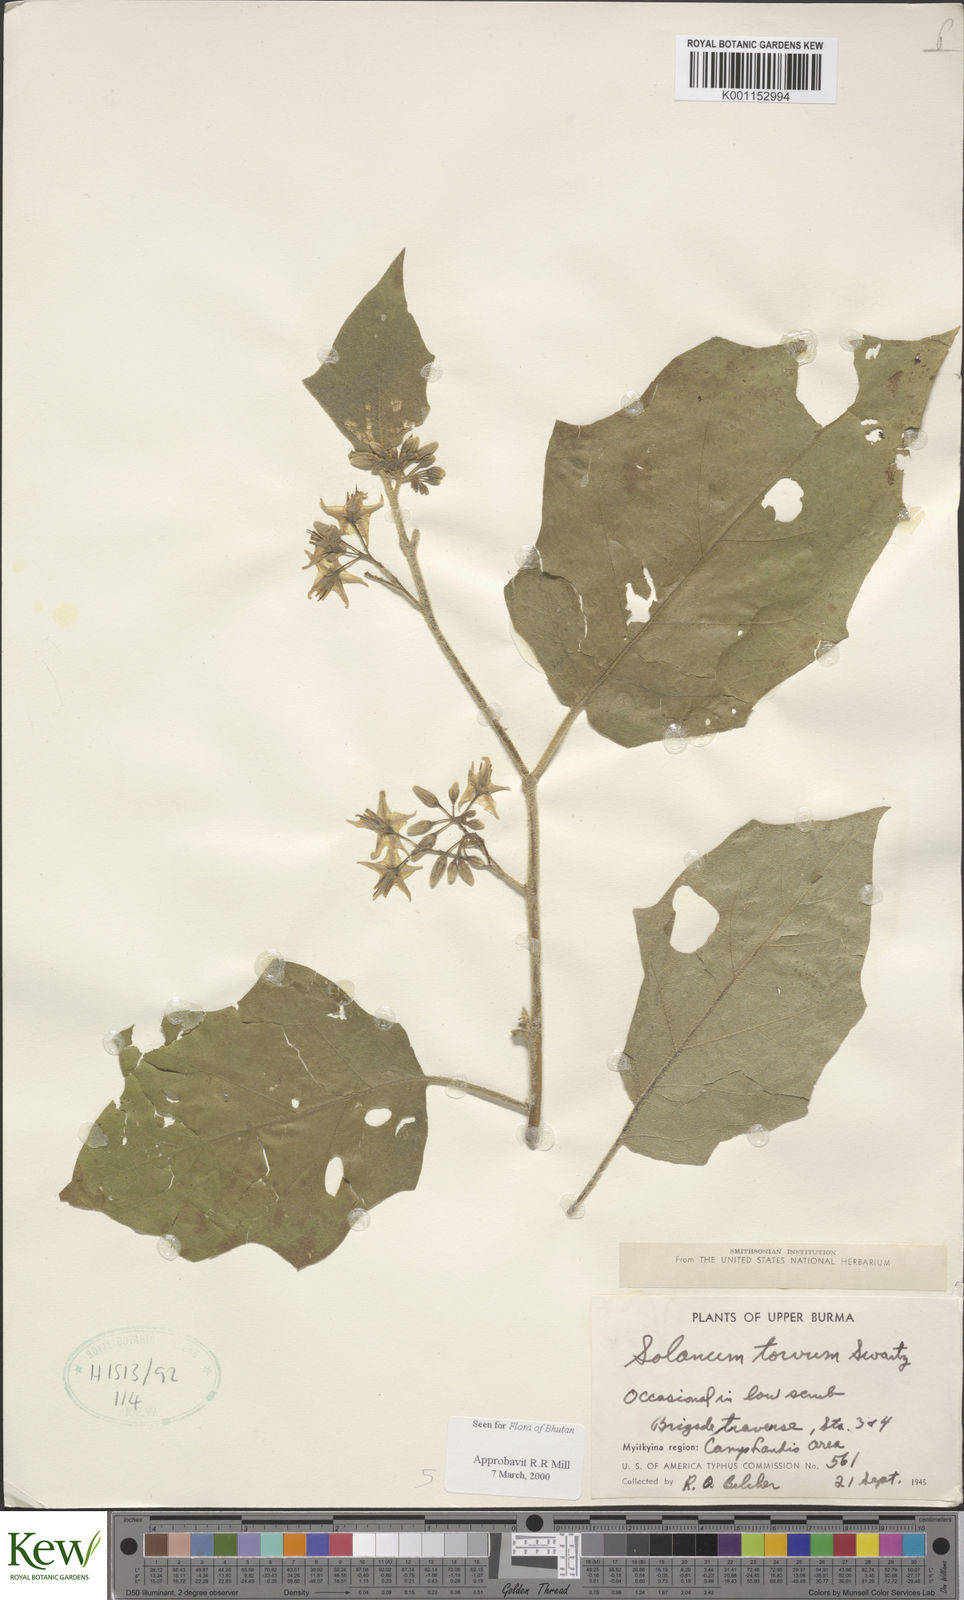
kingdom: Plantae
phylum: Tracheophyta
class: Magnoliopsida
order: Solanales
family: Solanaceae
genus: Solanum
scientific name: Solanum torvum
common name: Turkey berry
